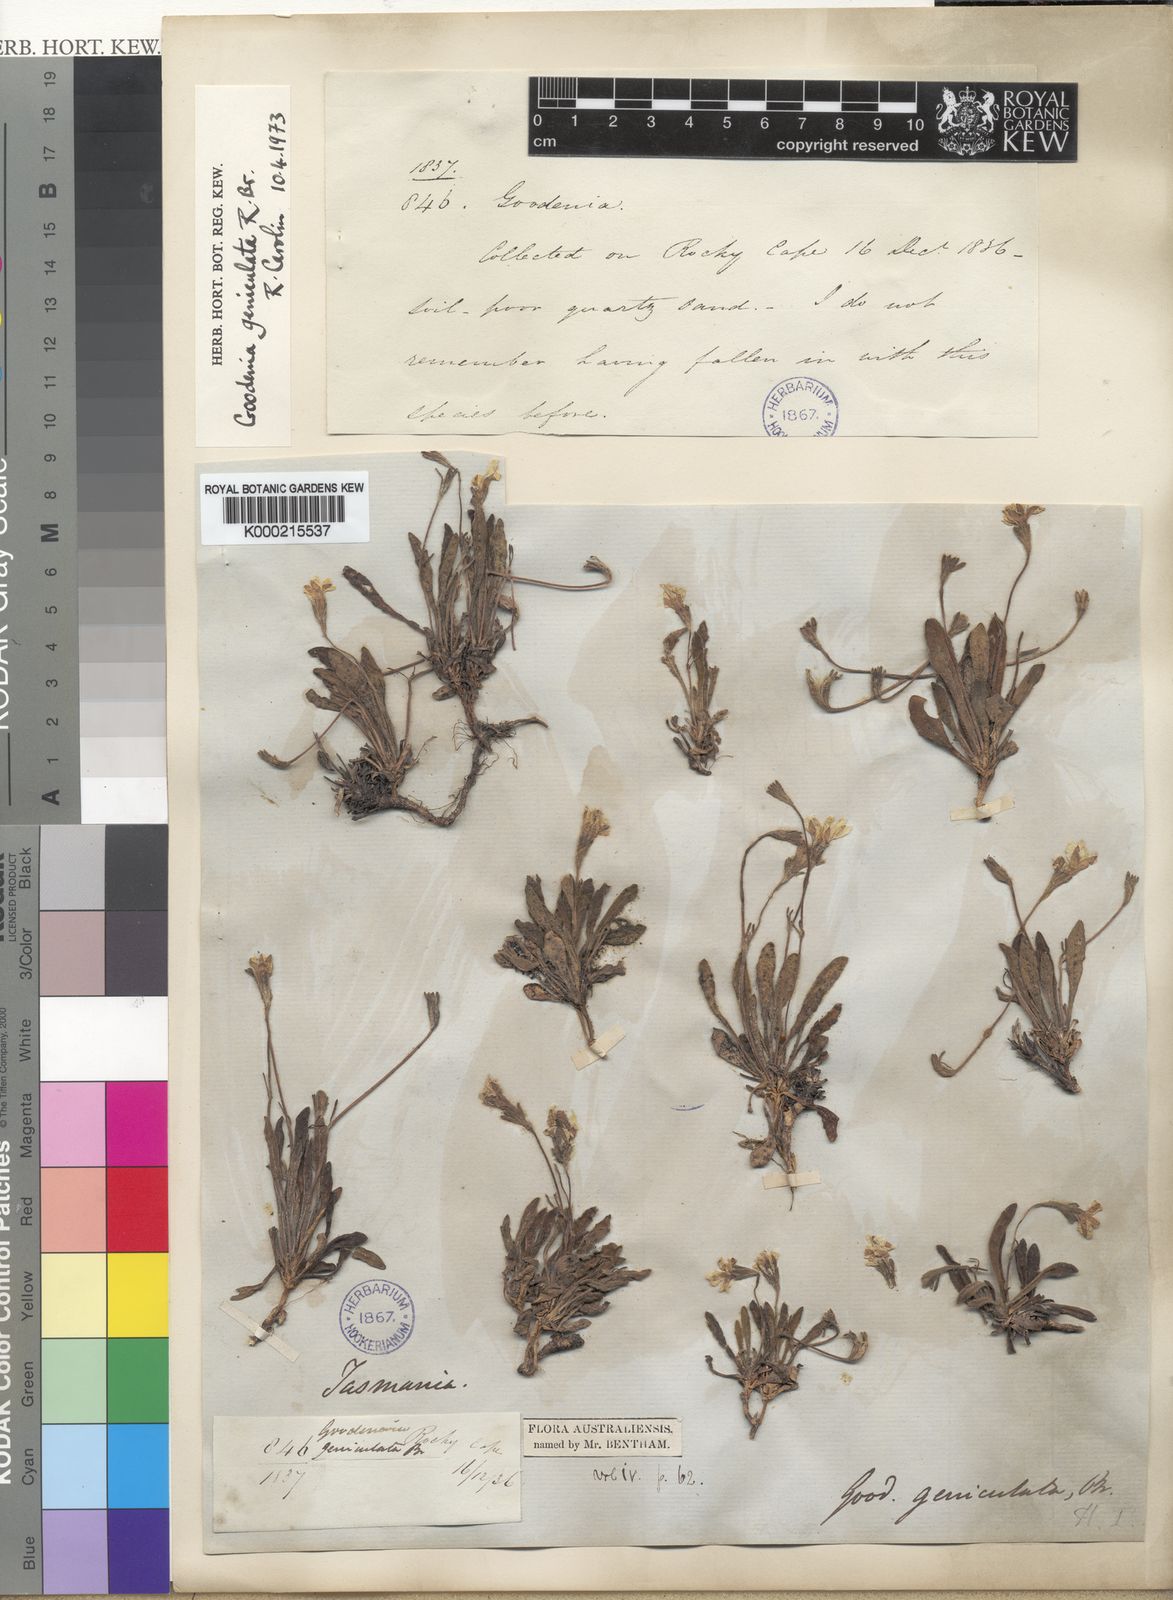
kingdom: Plantae
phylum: Tracheophyta
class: Magnoliopsida
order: Asterales
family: Goodeniaceae
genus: Goodenia
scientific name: Goodenia geniculata
